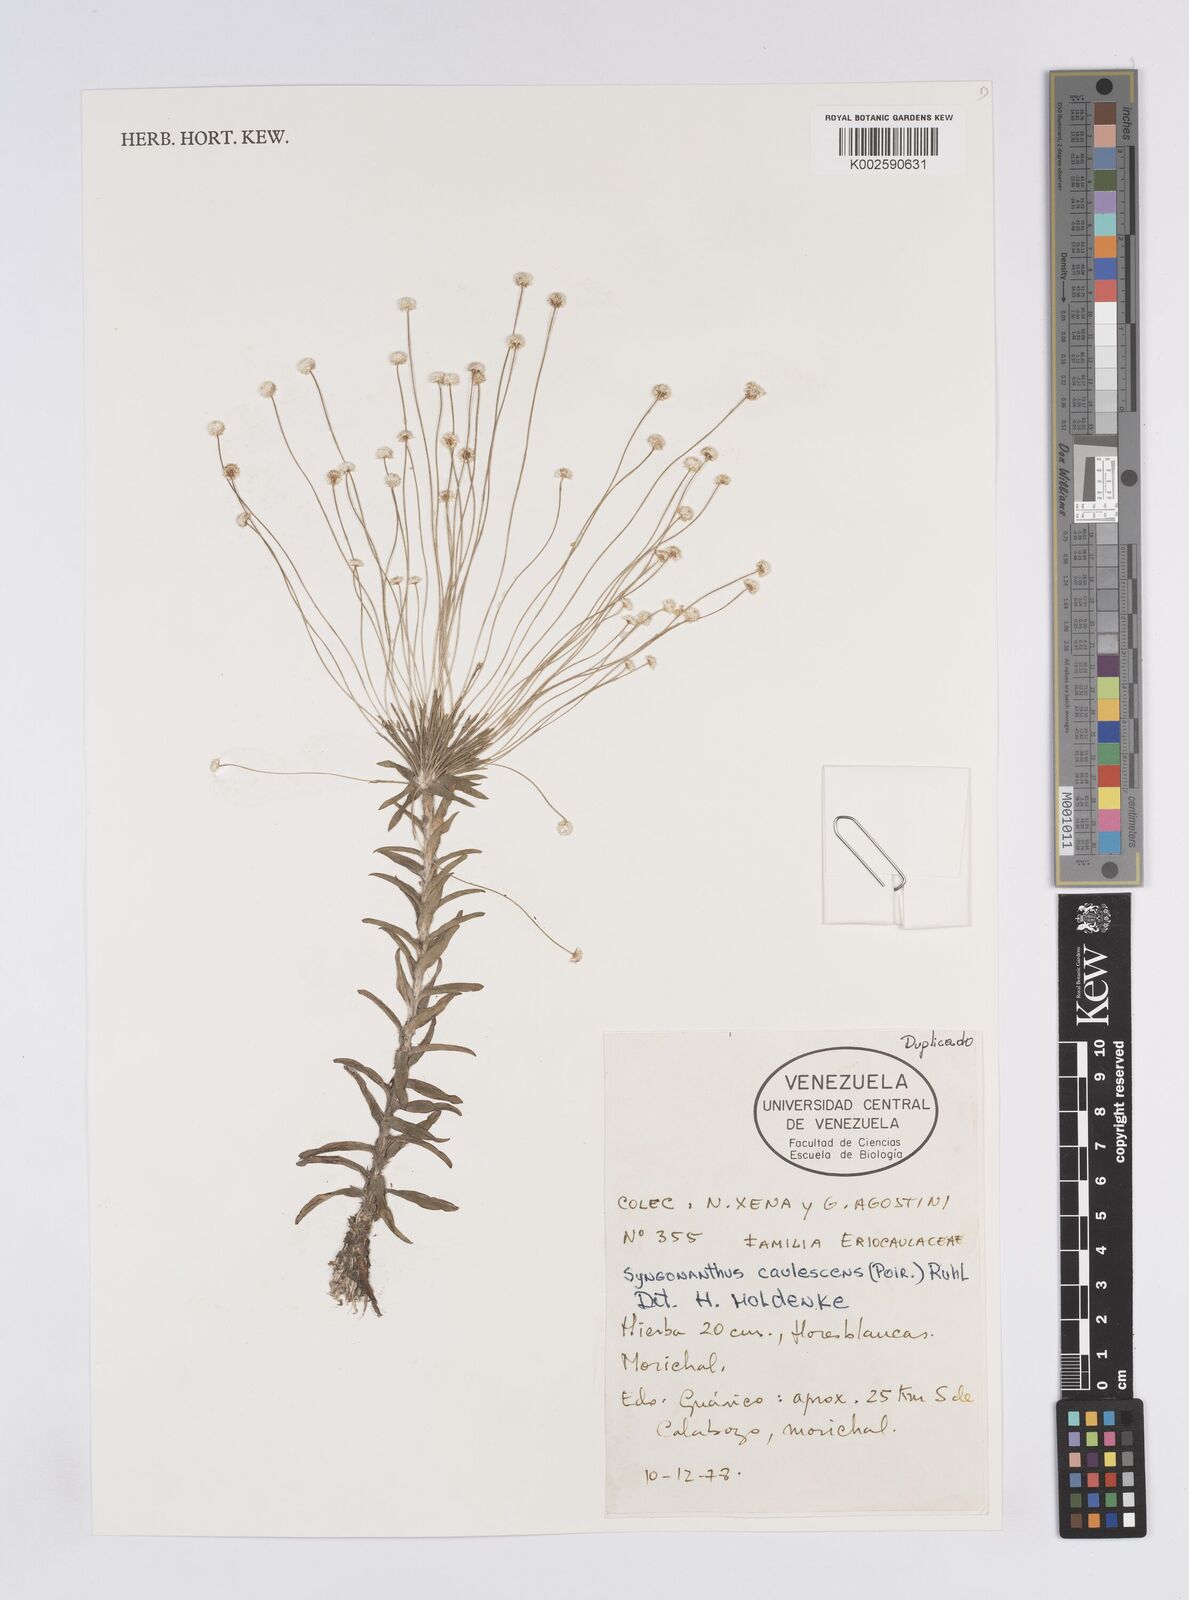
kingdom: Plantae
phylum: Tracheophyta
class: Liliopsida
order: Poales
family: Eriocaulaceae
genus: Syngonanthus
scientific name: Syngonanthus caulescens
